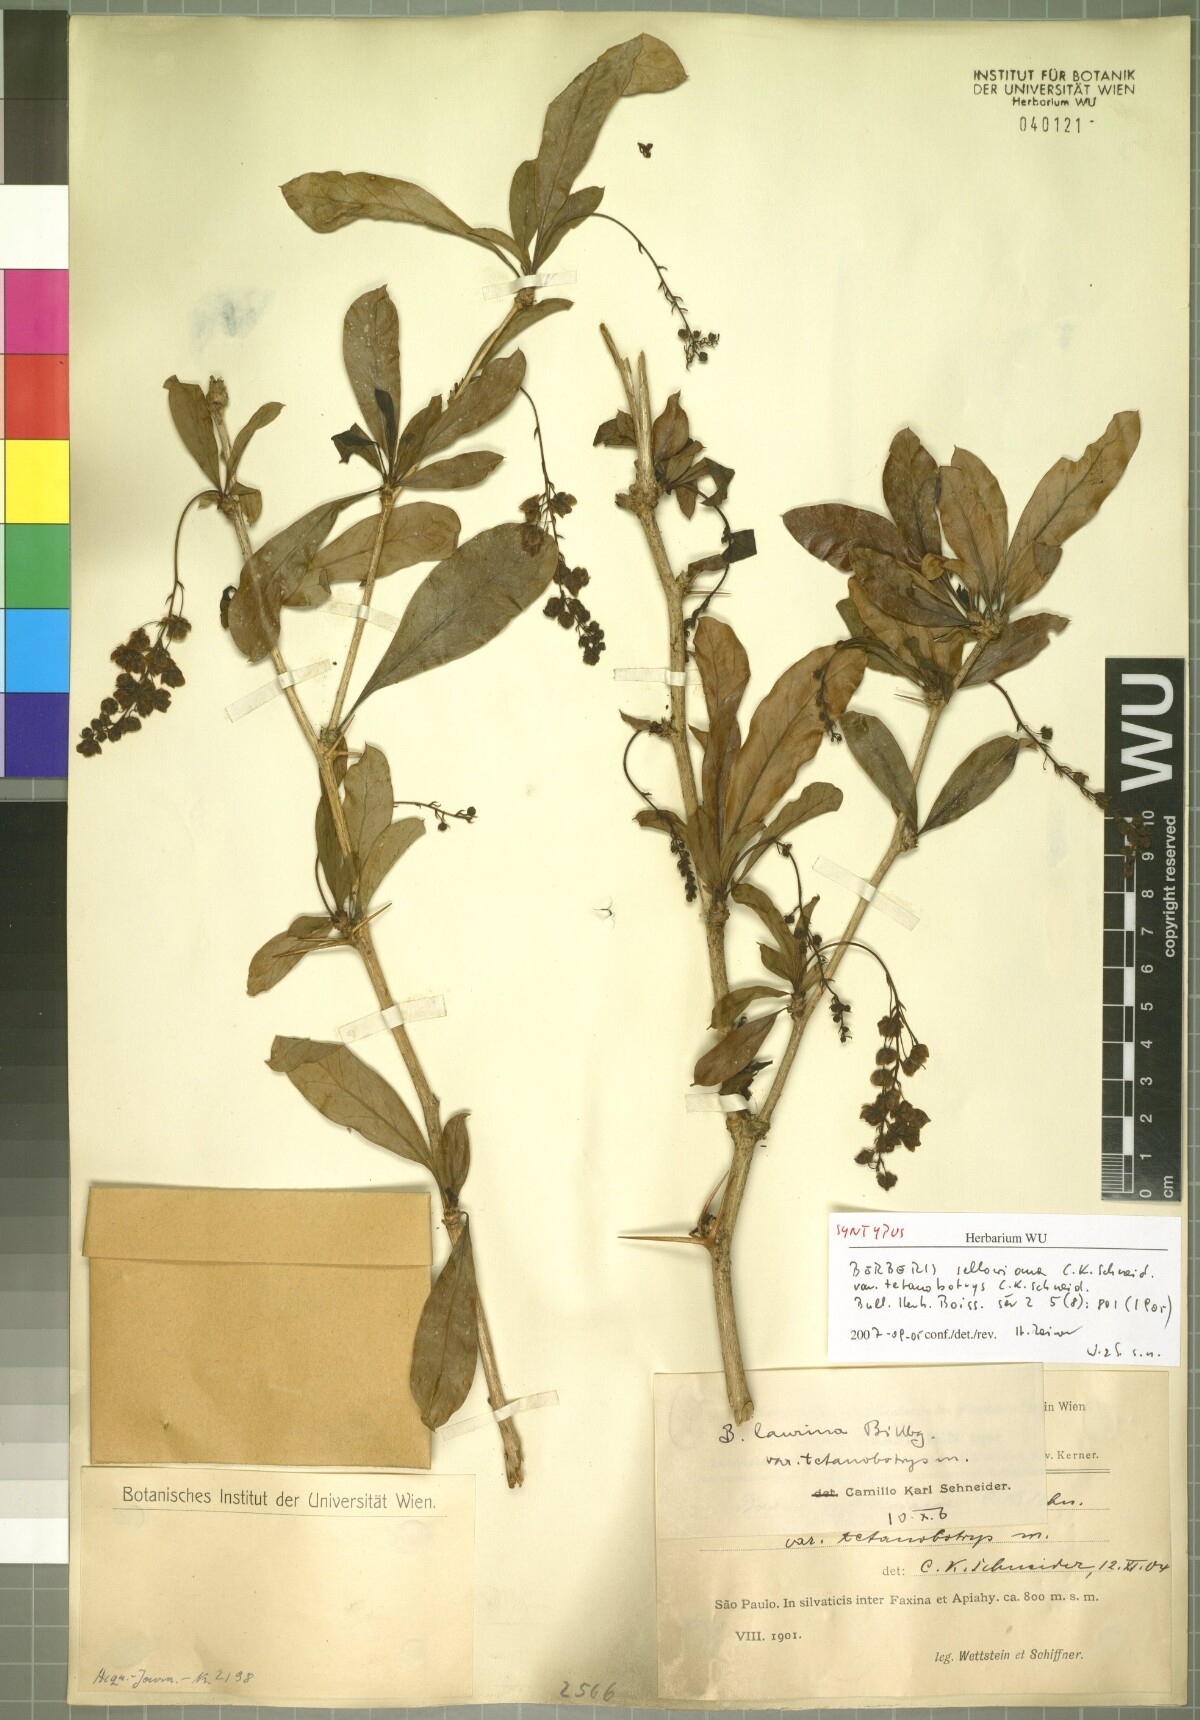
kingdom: Plantae
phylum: Tracheophyta
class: Magnoliopsida
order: Ranunculales
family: Berberidaceae
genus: Berberis
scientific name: Berberis laurina
